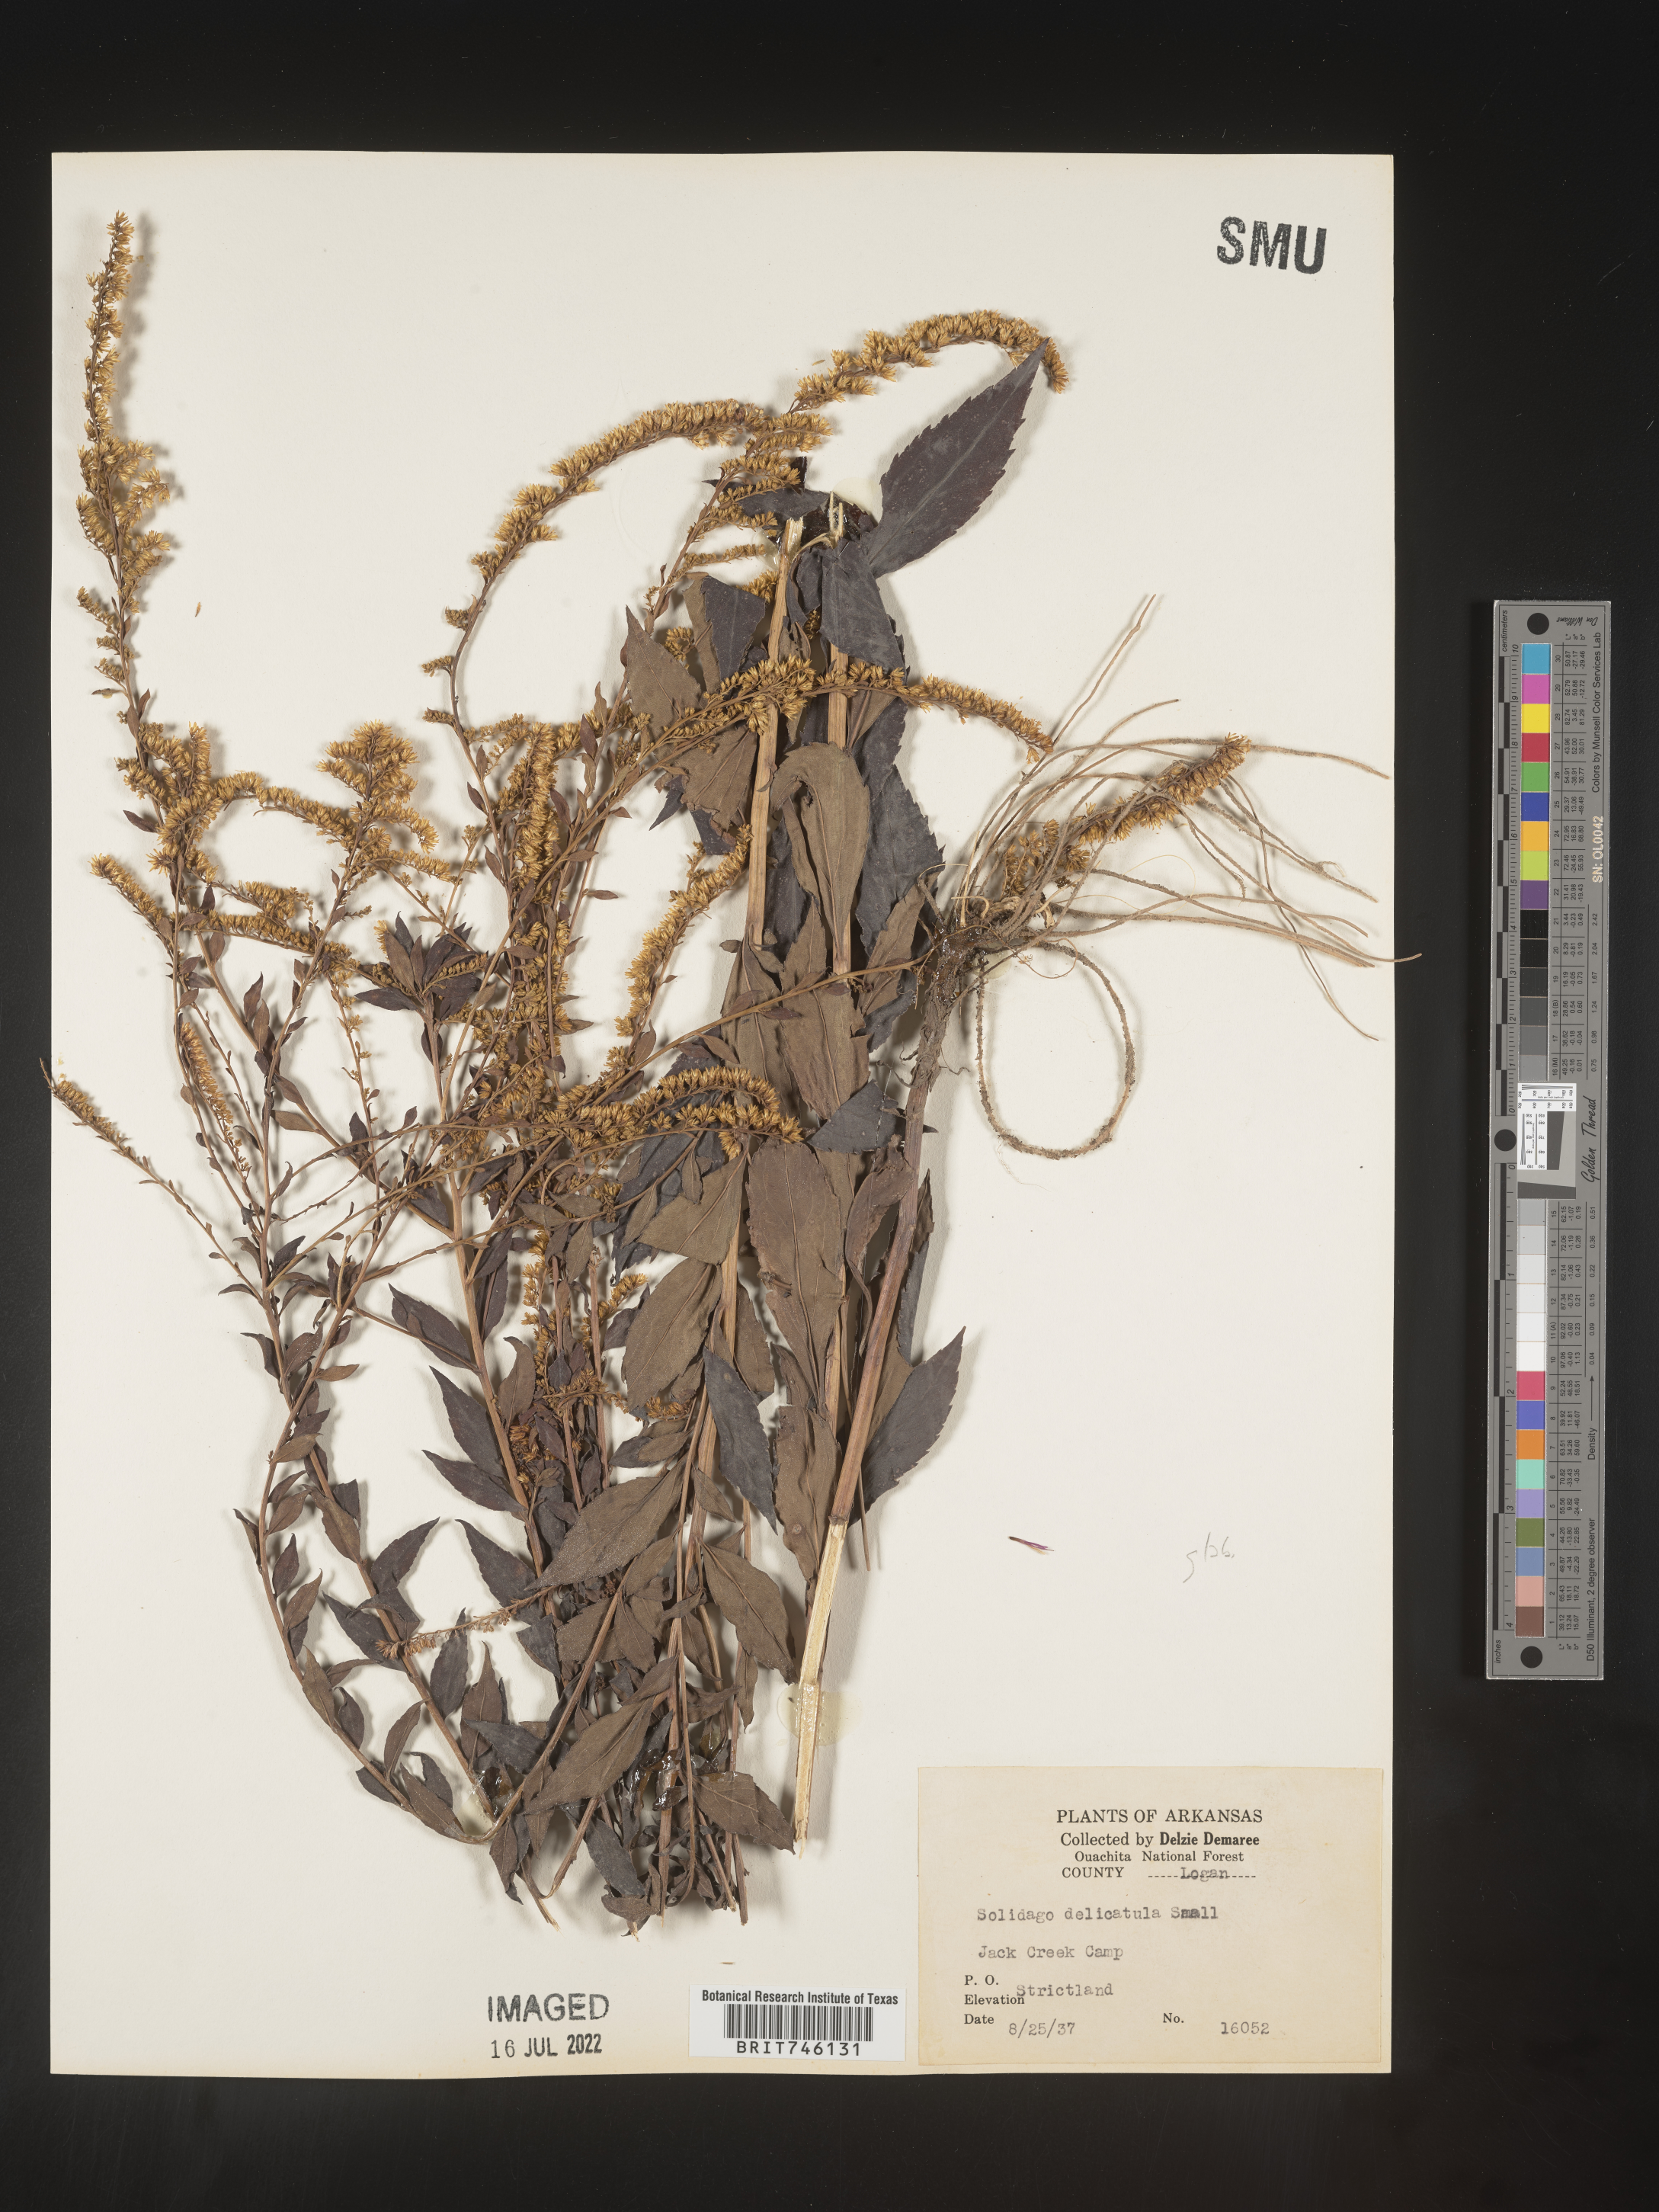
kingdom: Plantae
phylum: Tracheophyta
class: Magnoliopsida
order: Asterales
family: Asteraceae
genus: Solidago
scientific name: Solidago delicatula
